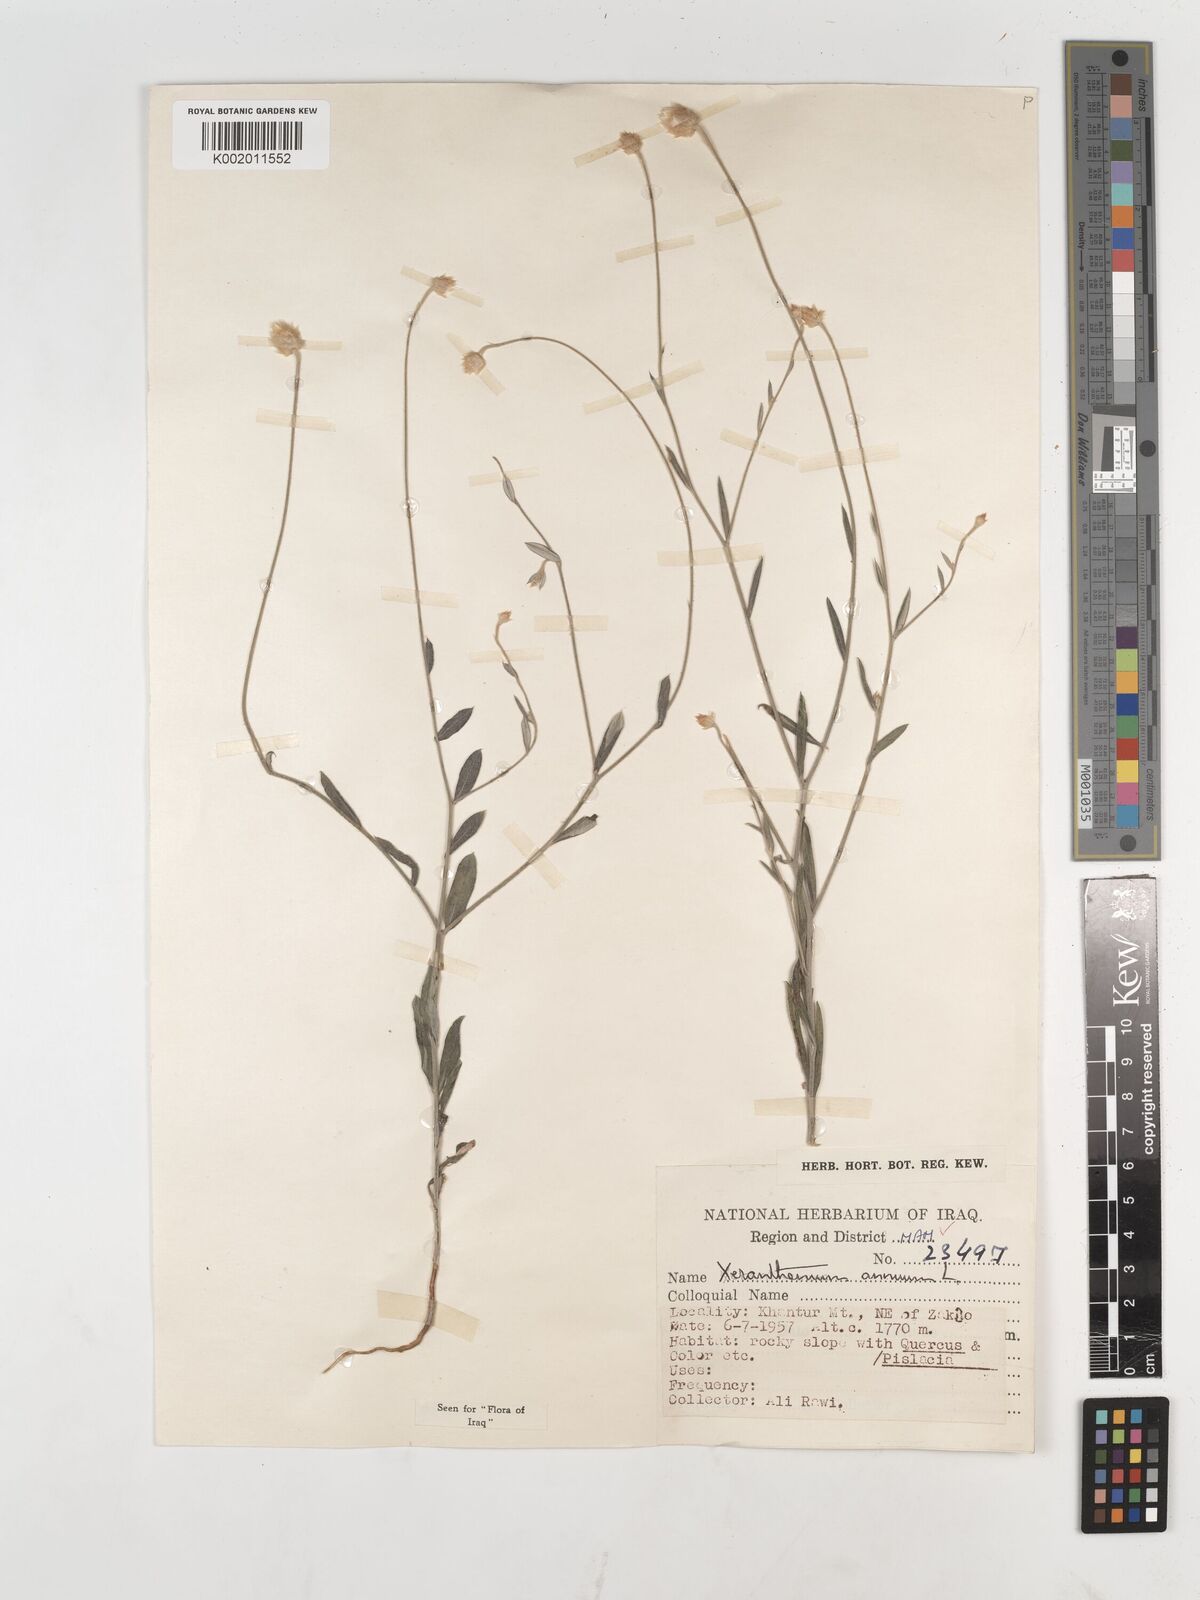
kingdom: Plantae
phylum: Tracheophyta
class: Magnoliopsida
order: Asterales
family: Asteraceae
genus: Xeranthemum
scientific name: Xeranthemum annuum
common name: Immortelle
